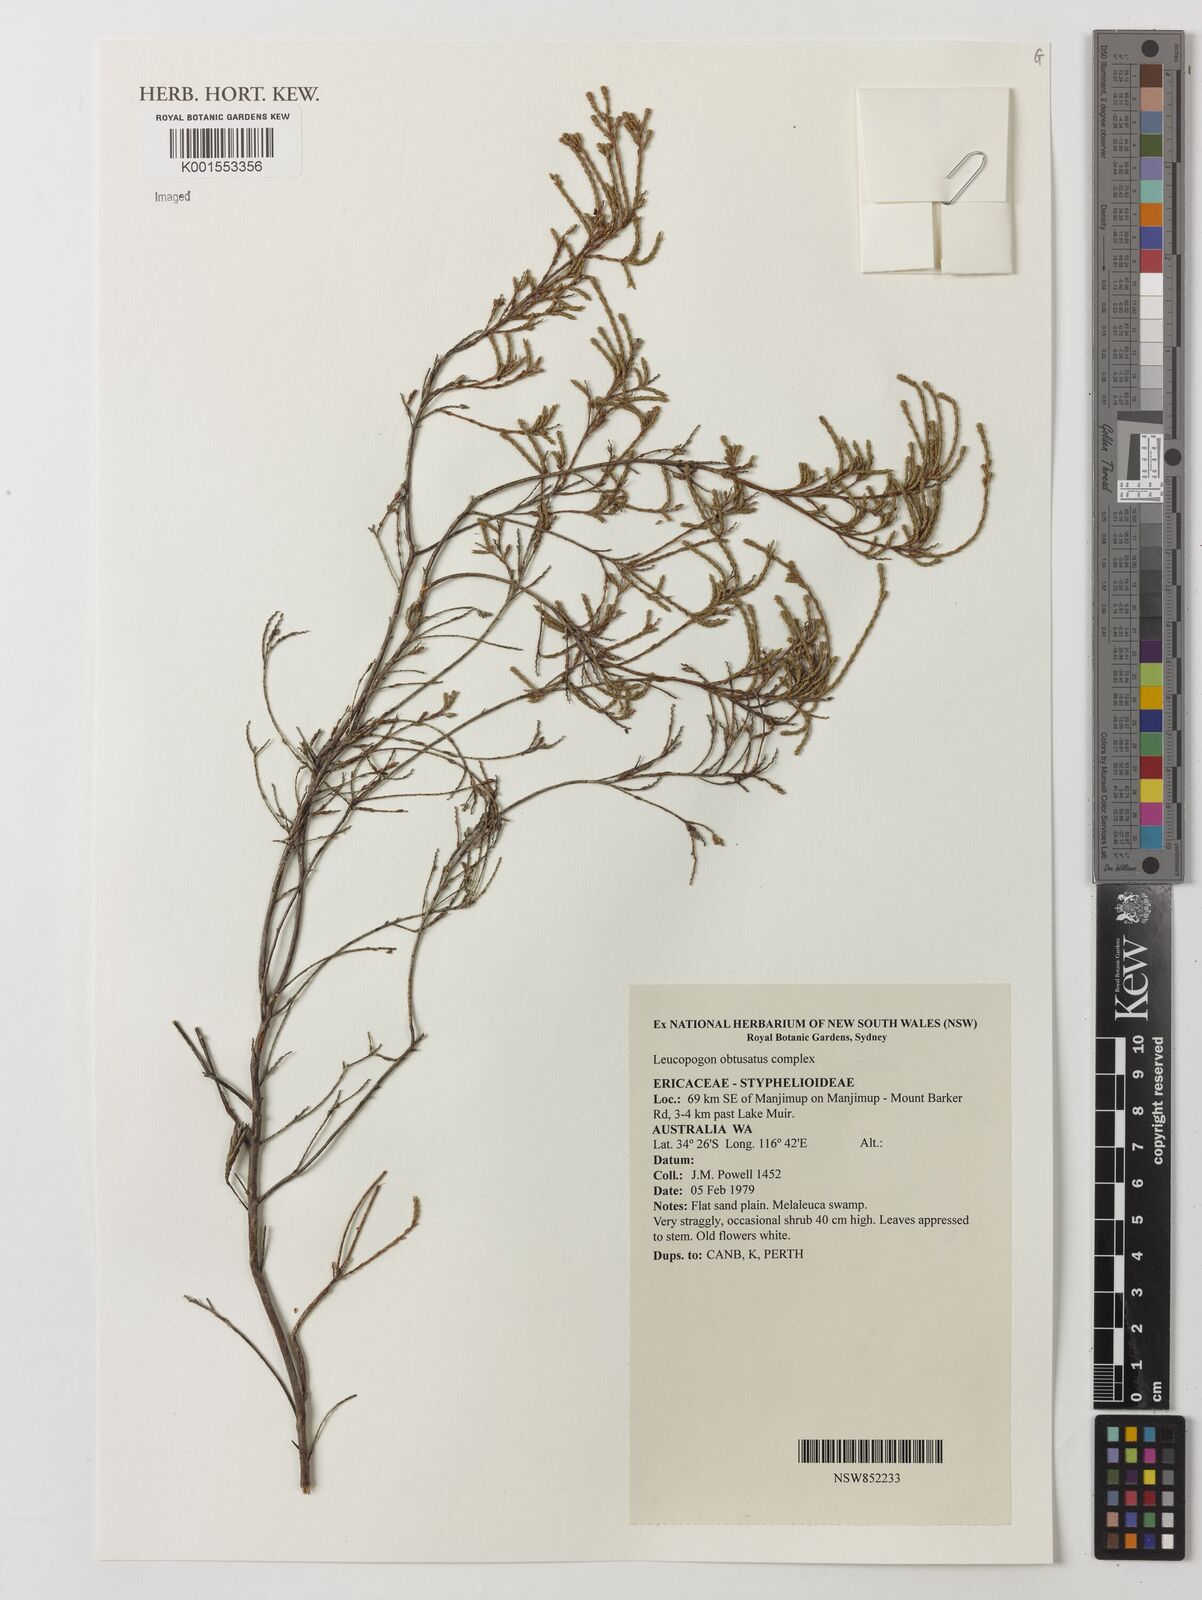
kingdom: Plantae
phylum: Tracheophyta
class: Magnoliopsida
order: Ericales
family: Ericaceae
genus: Leucopogon
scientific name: Leucopogon obtusatus
